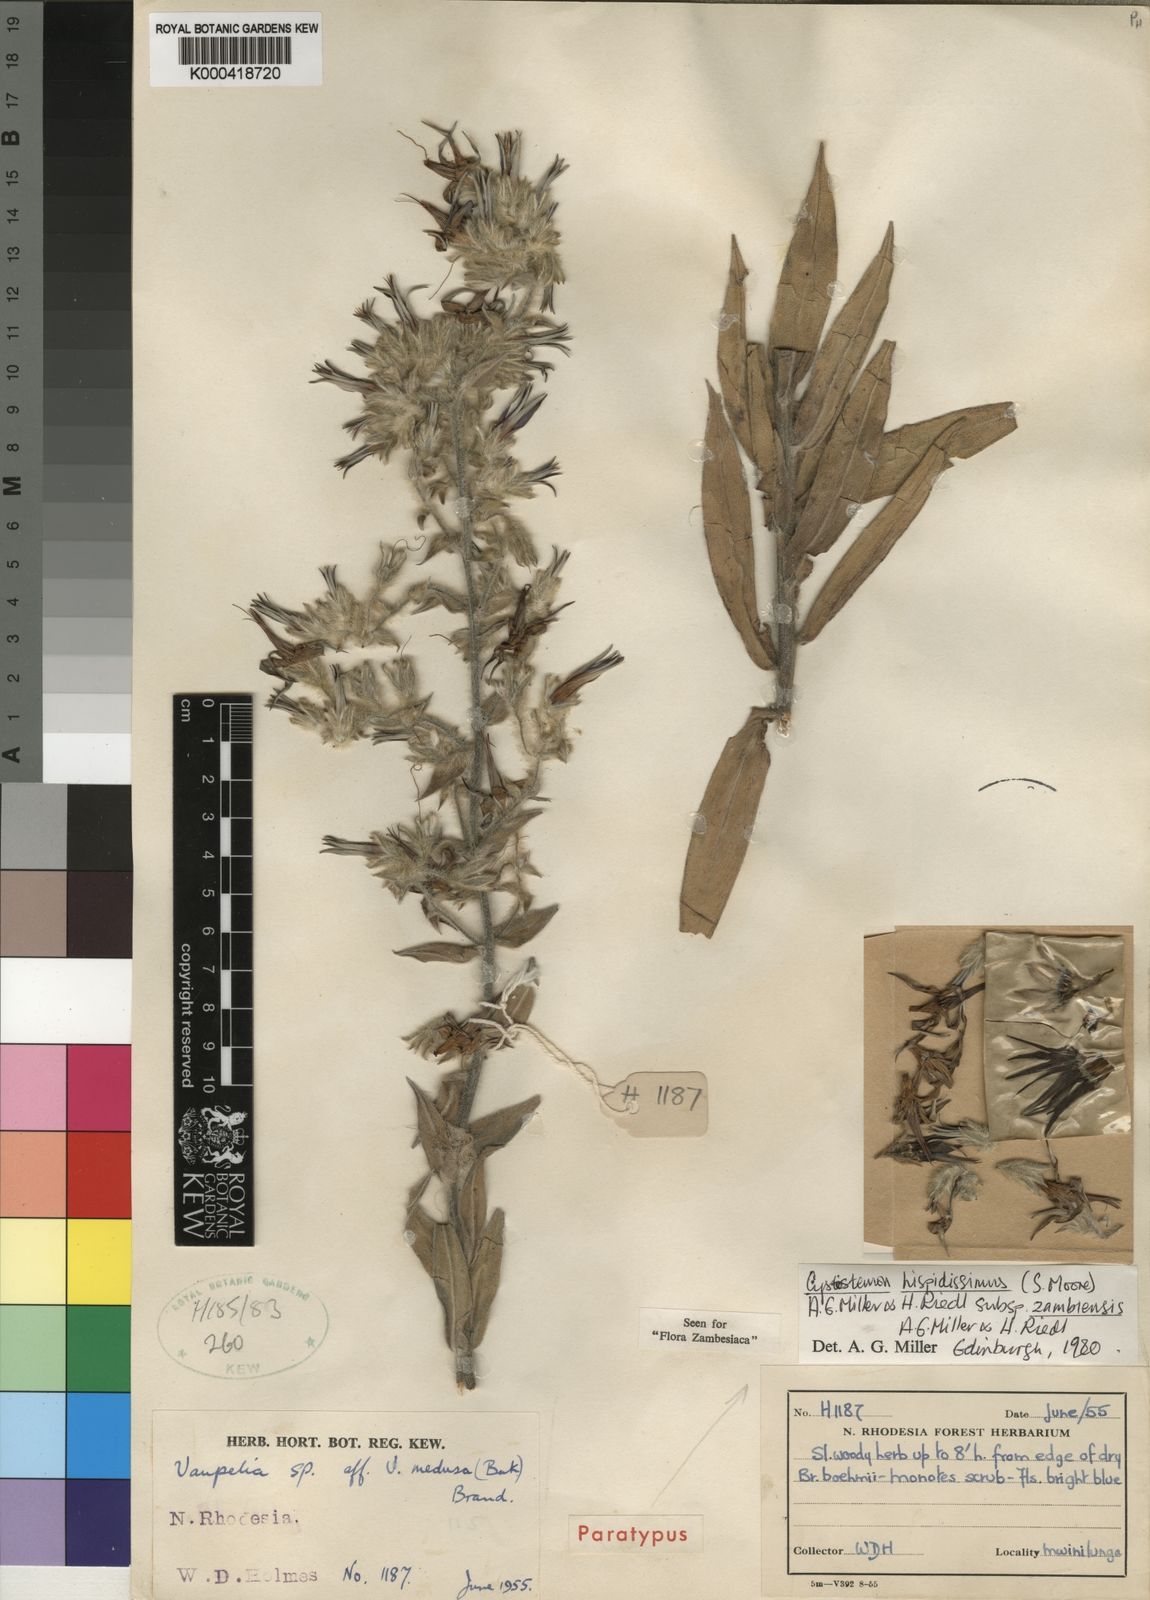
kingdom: Plantae
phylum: Tracheophyta
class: Magnoliopsida
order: Boraginales
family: Boraginaceae
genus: Cystostemon
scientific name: Cystostemon hispidissimus
